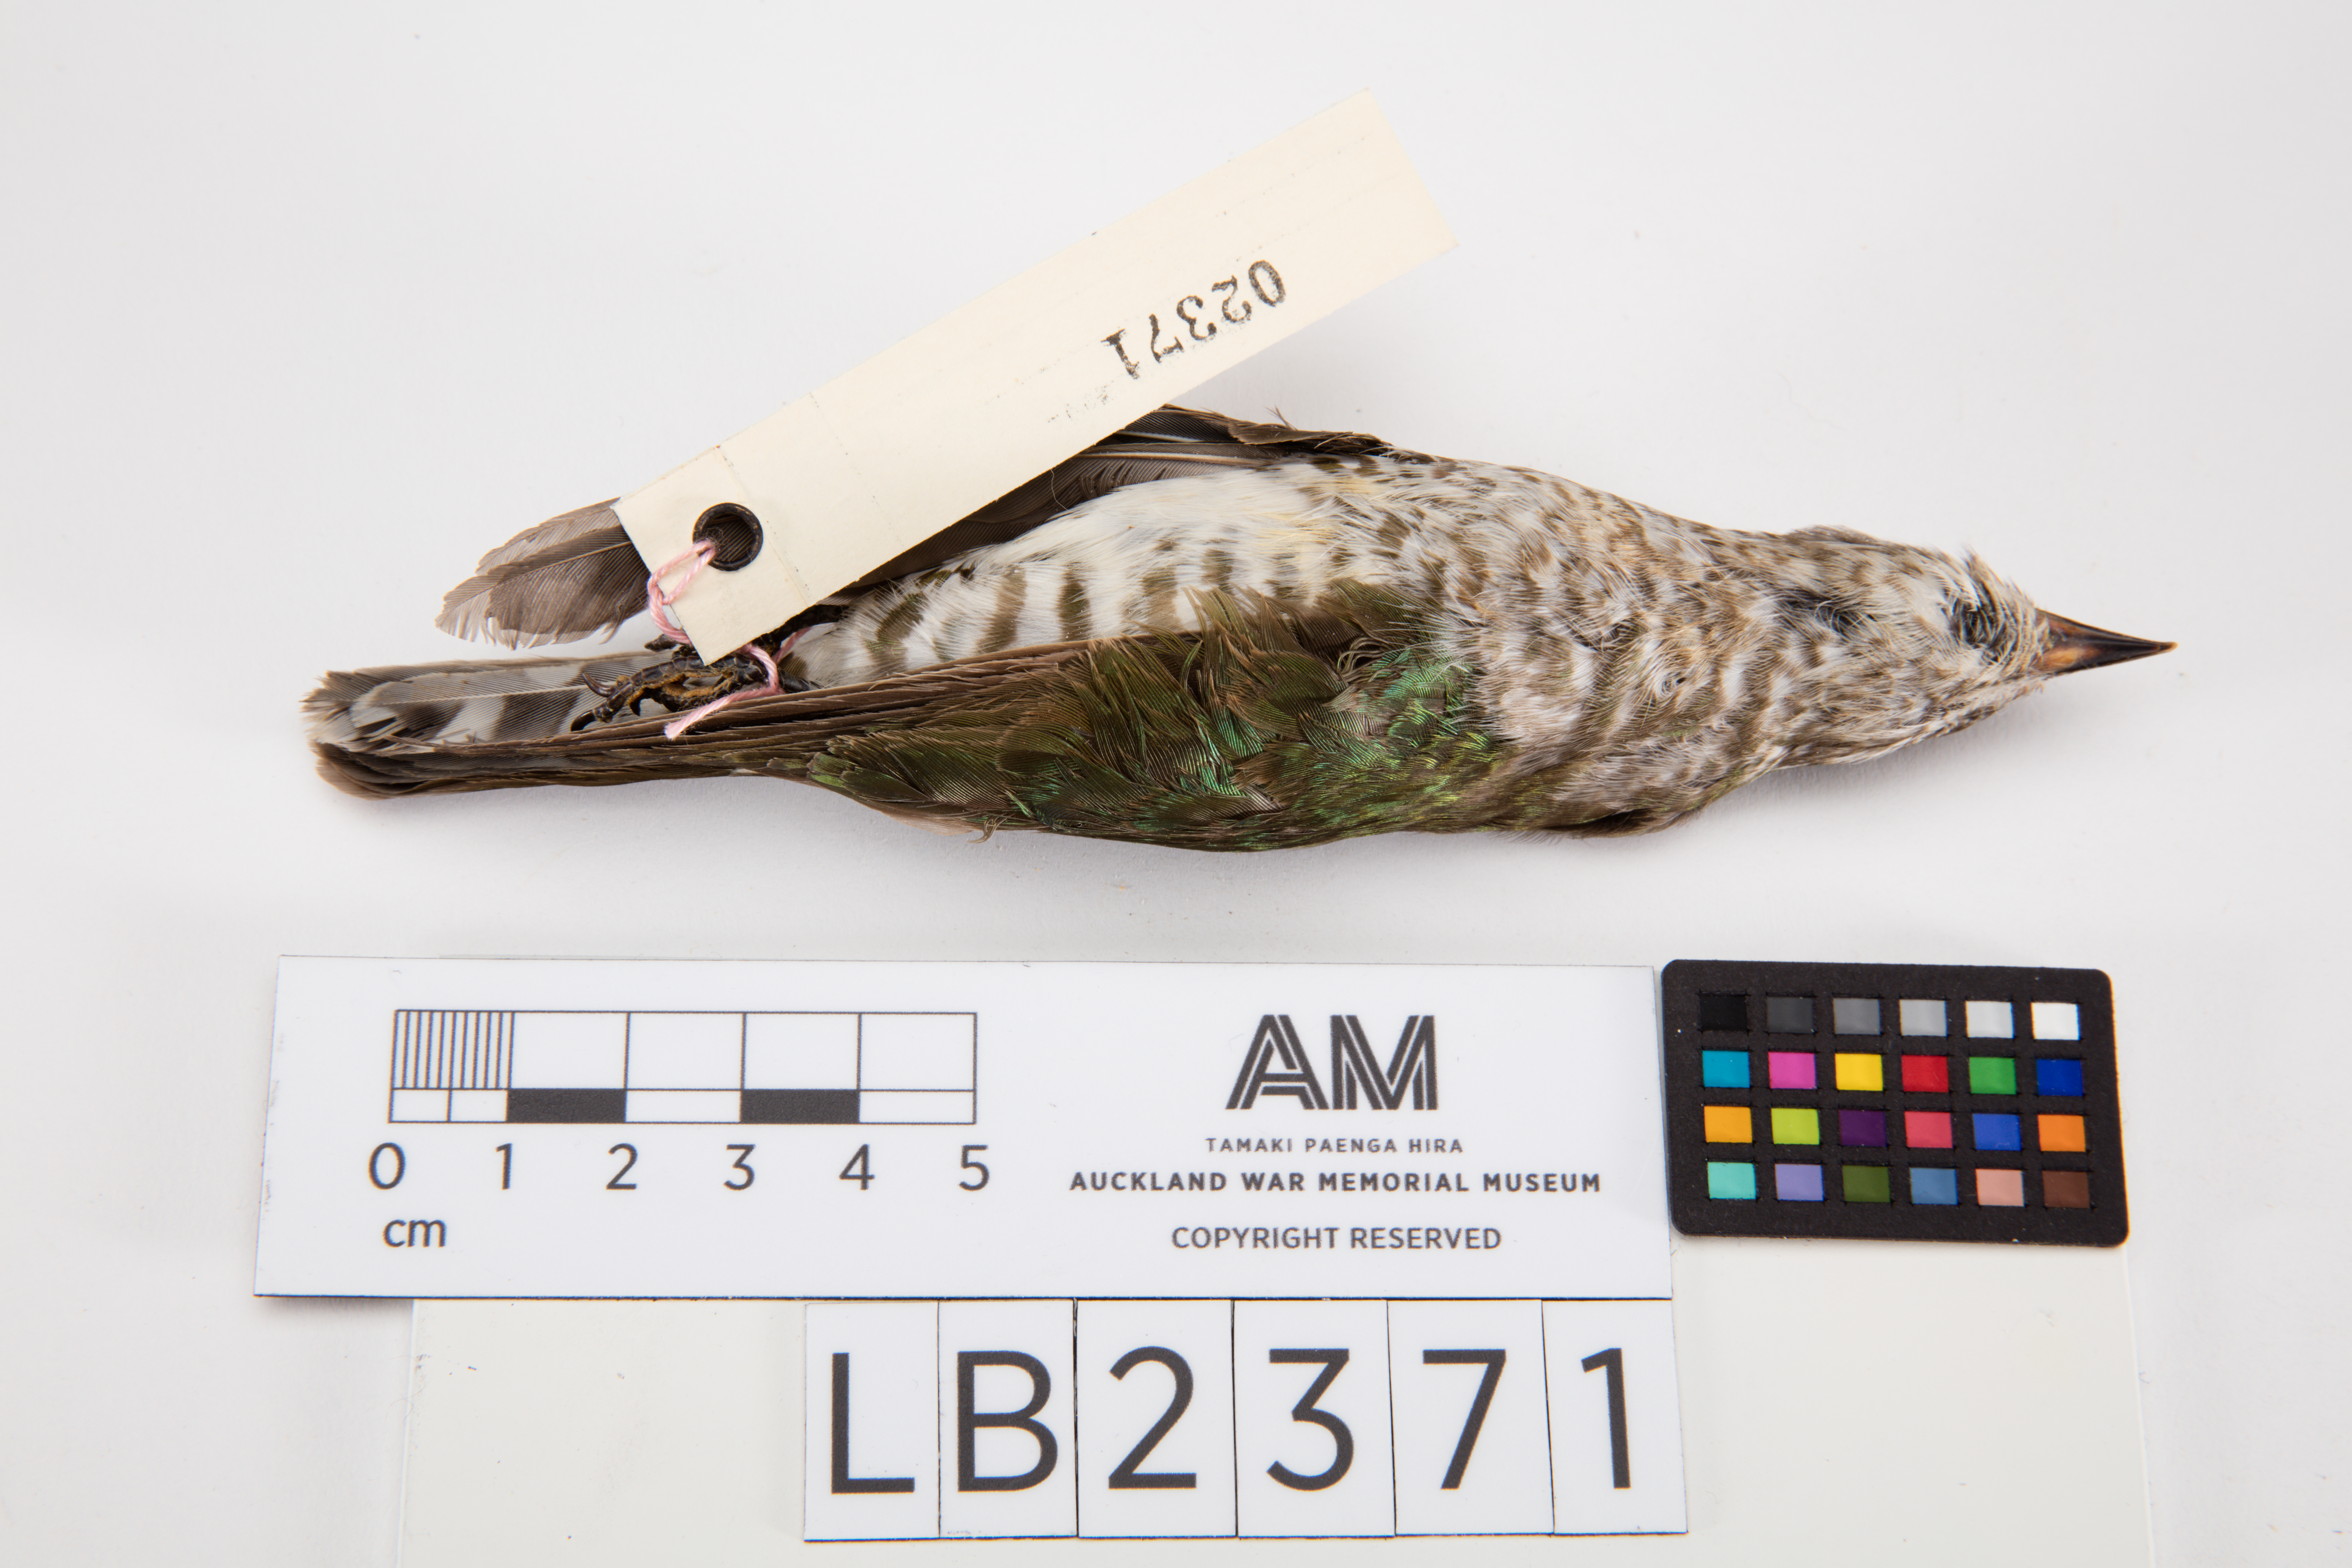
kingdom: Animalia
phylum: Chordata
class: Aves
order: Cuculiformes
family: Cuculidae
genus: Chrysococcyx
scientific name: Chrysococcyx lucidus
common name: Shining bronze cuckoo
